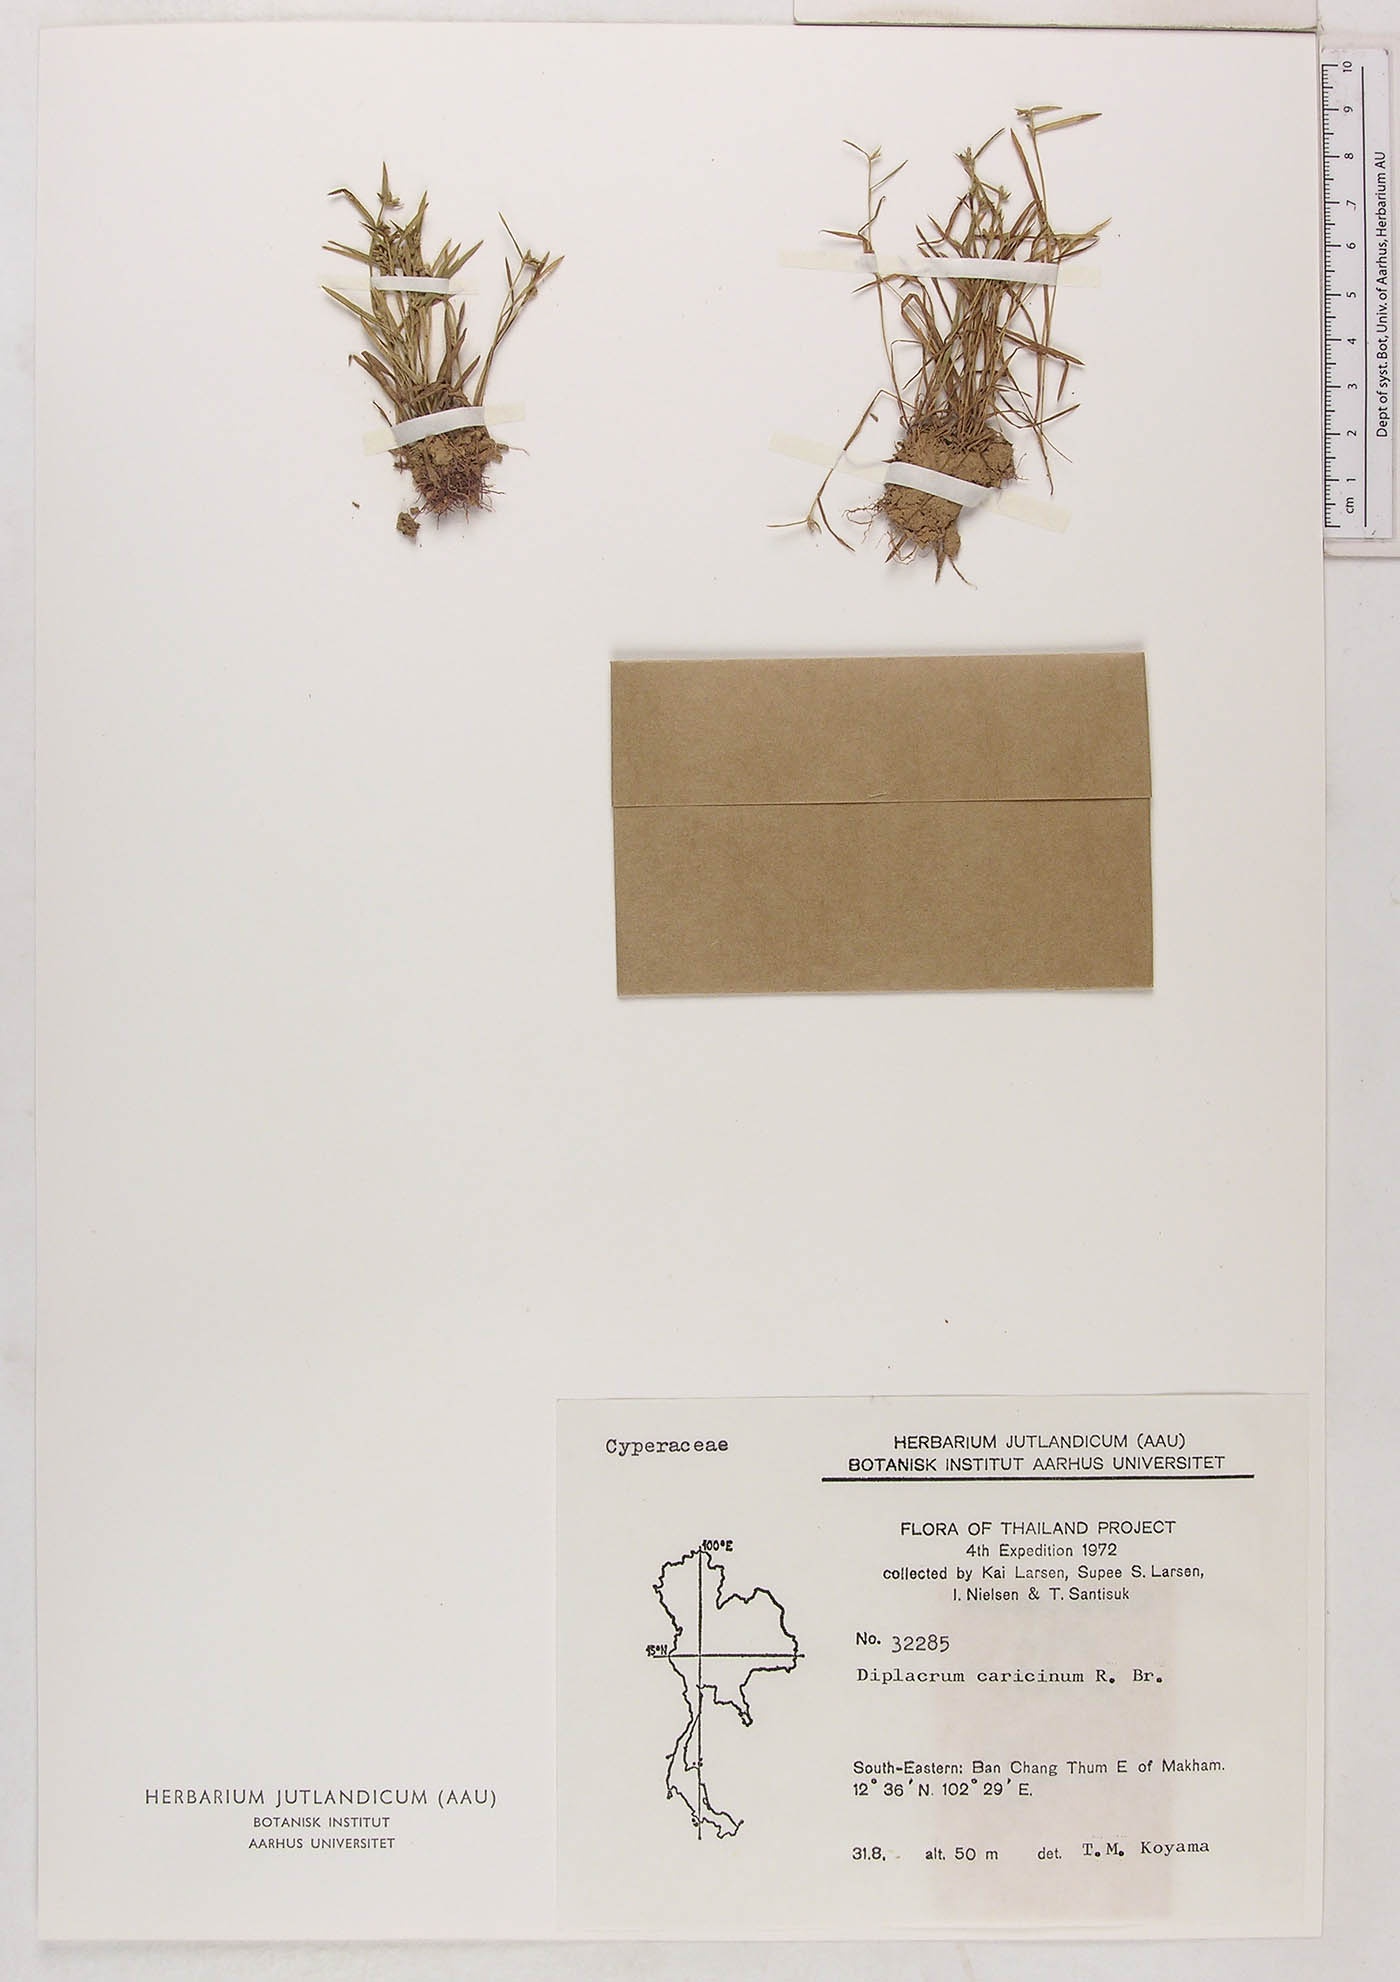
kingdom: Plantae
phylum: Tracheophyta
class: Liliopsida
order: Poales
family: Cyperaceae
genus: Diplacrum
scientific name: Diplacrum caricinum
